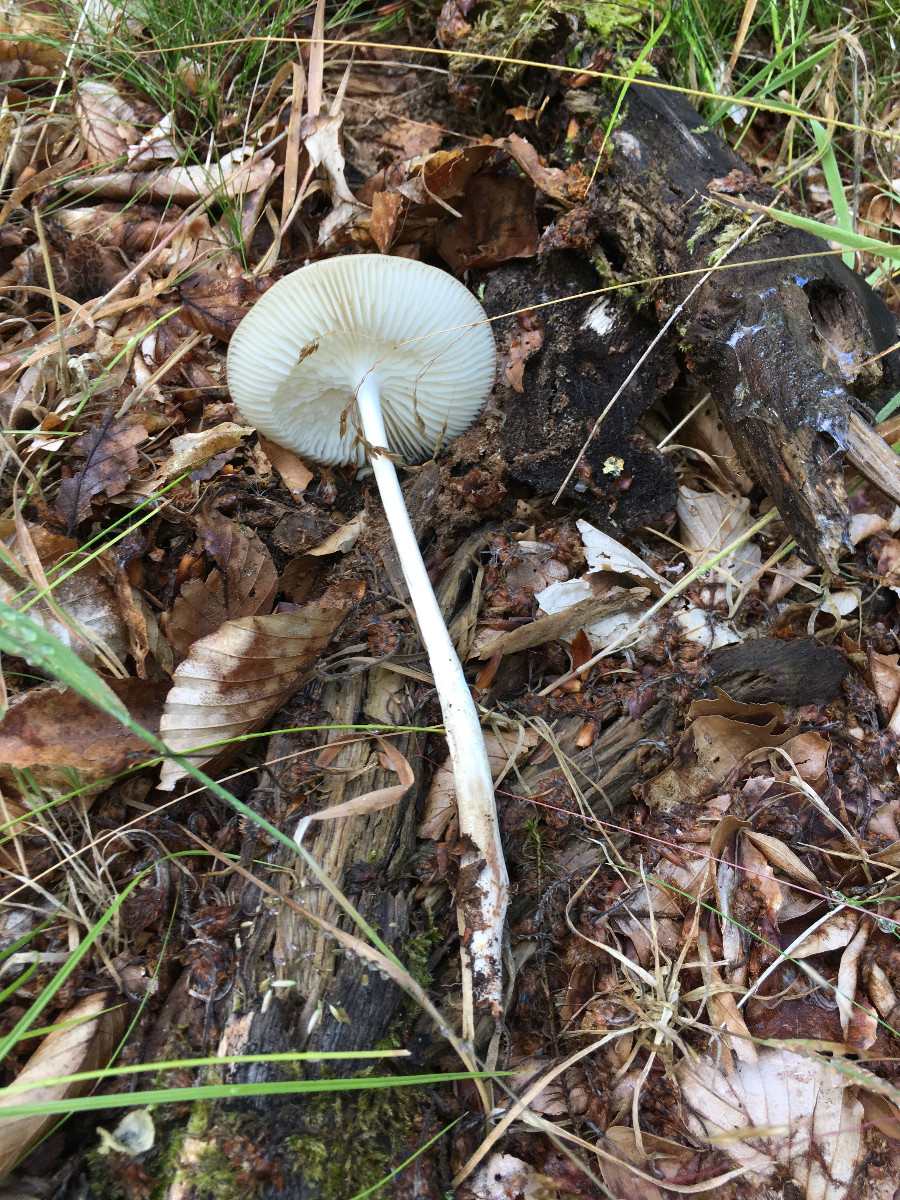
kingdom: Fungi
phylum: Basidiomycota
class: Agaricomycetes
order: Agaricales
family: Physalacriaceae
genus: Hymenopellis
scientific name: Hymenopellis radicata
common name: almindelig pælerodshat
